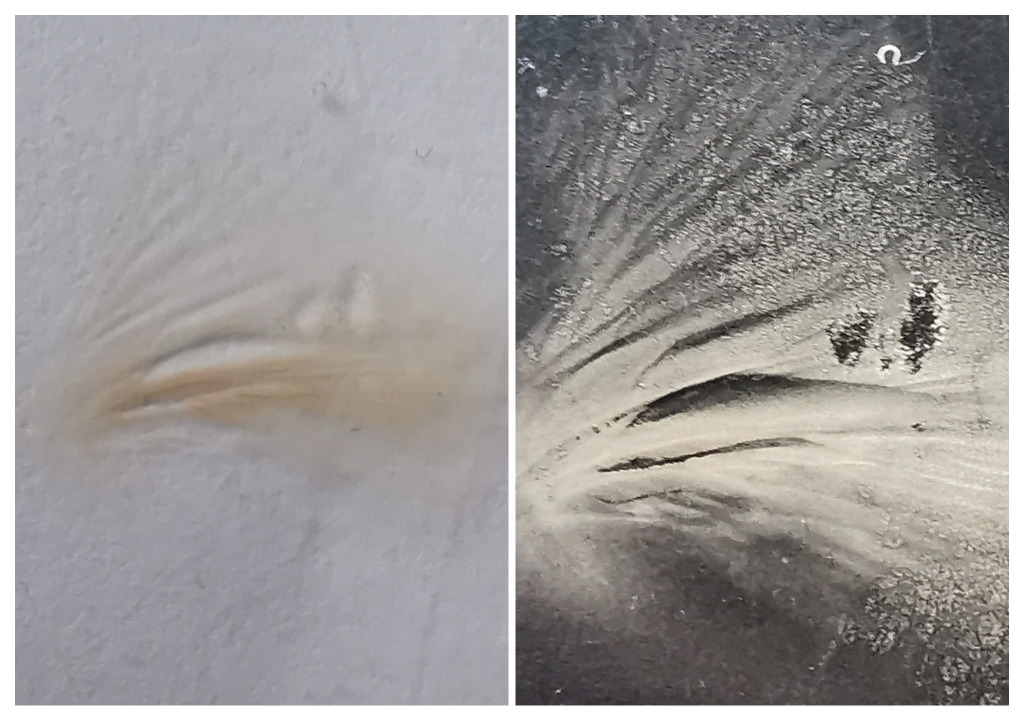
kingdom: Fungi
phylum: Basidiomycota
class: Agaricomycetes
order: Agaricales
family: Entolomataceae
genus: Clitopilus
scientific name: Clitopilus hobsonii
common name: Miller's oysterling
